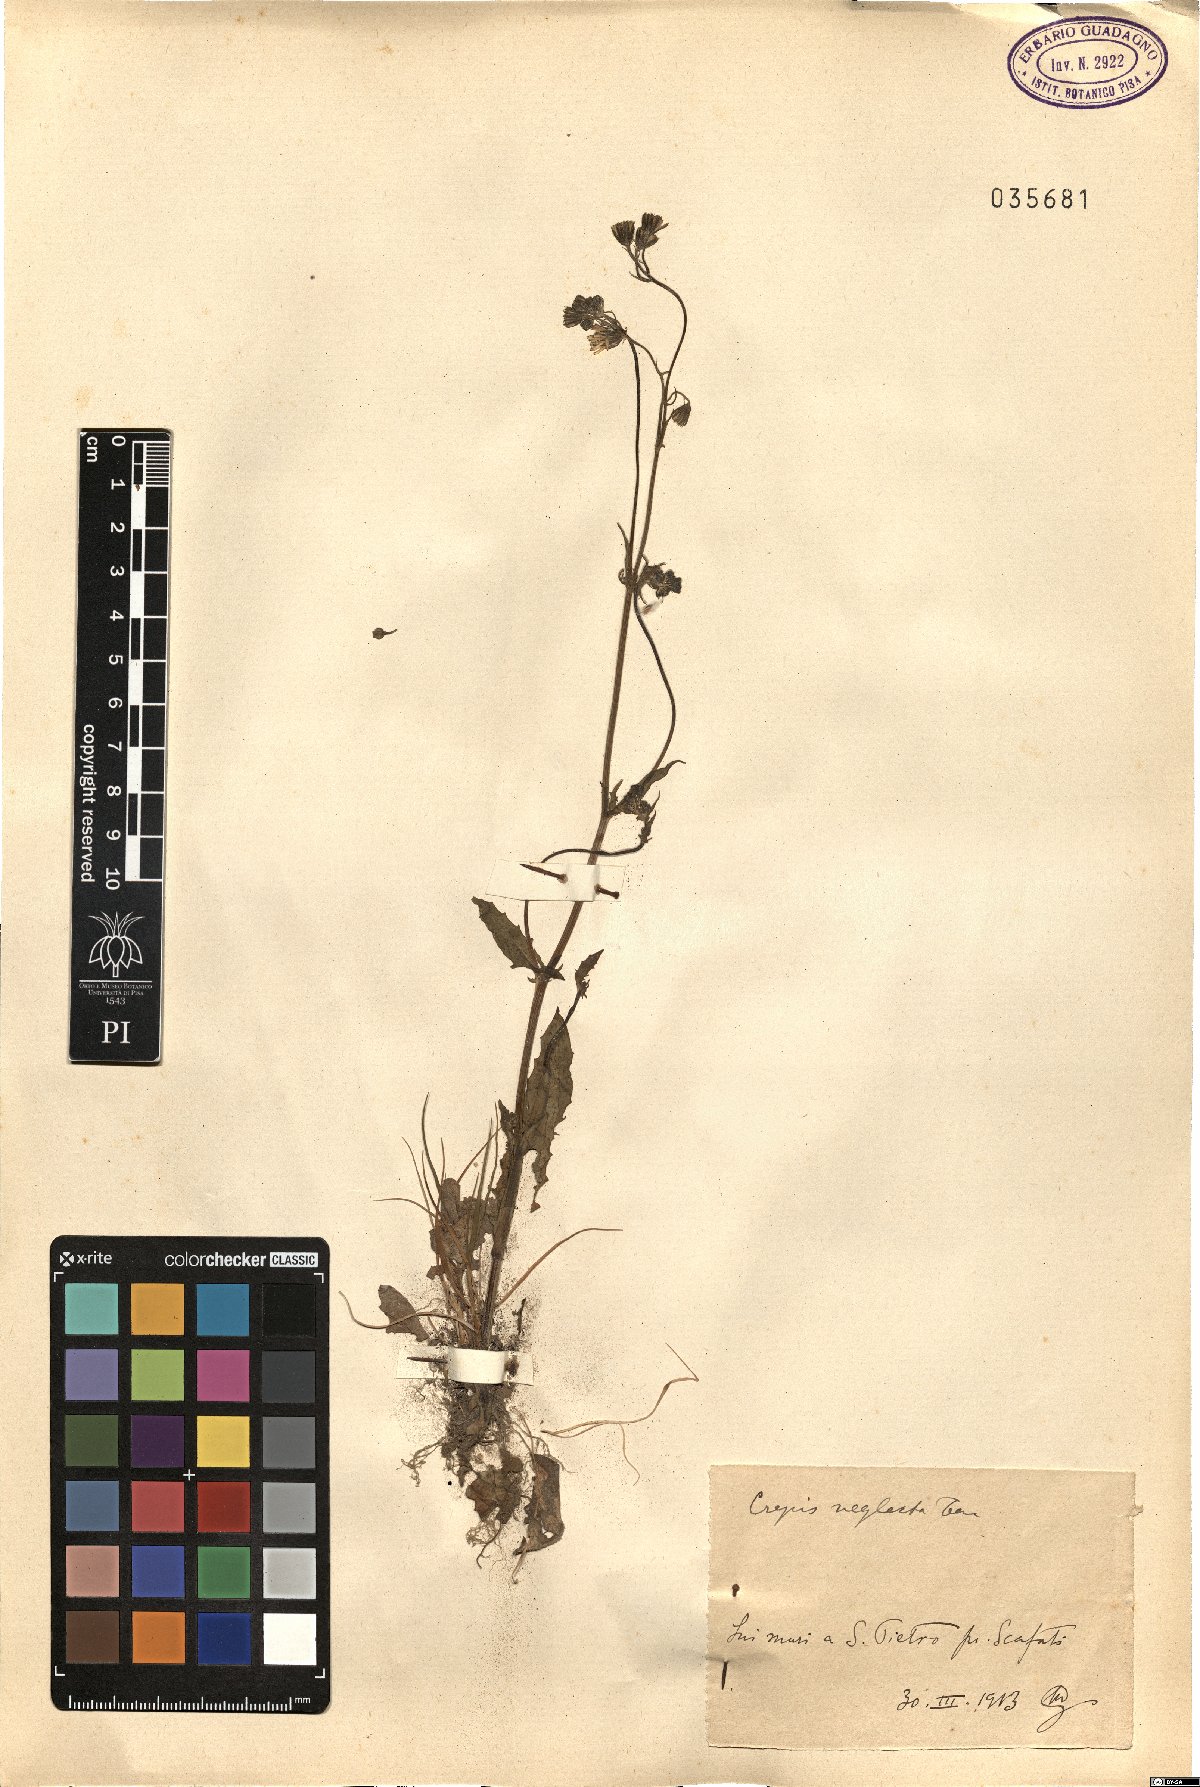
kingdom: Plantae
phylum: Tracheophyta
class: Magnoliopsida
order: Asterales
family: Asteraceae
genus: Crepis
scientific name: Crepis neglecta
